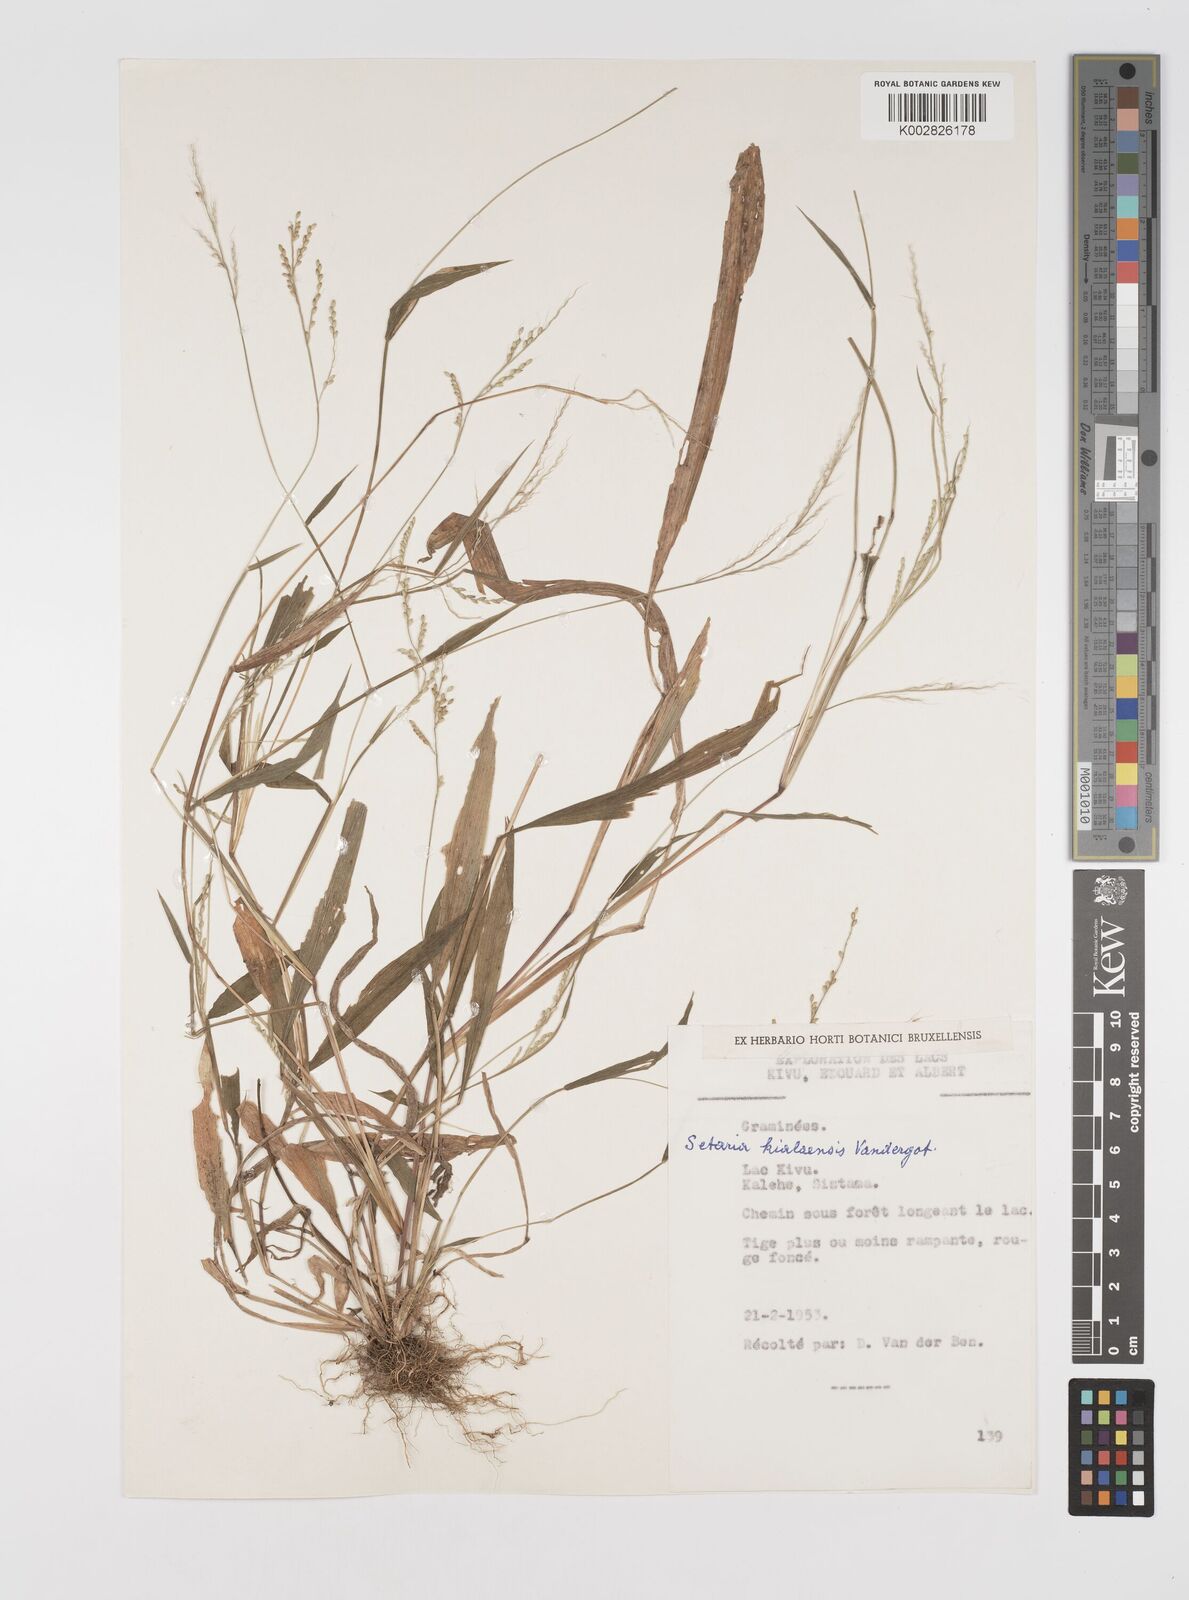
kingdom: Plantae
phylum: Tracheophyta
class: Liliopsida
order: Poales
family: Poaceae
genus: Setaria
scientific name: Setaria homonyma
